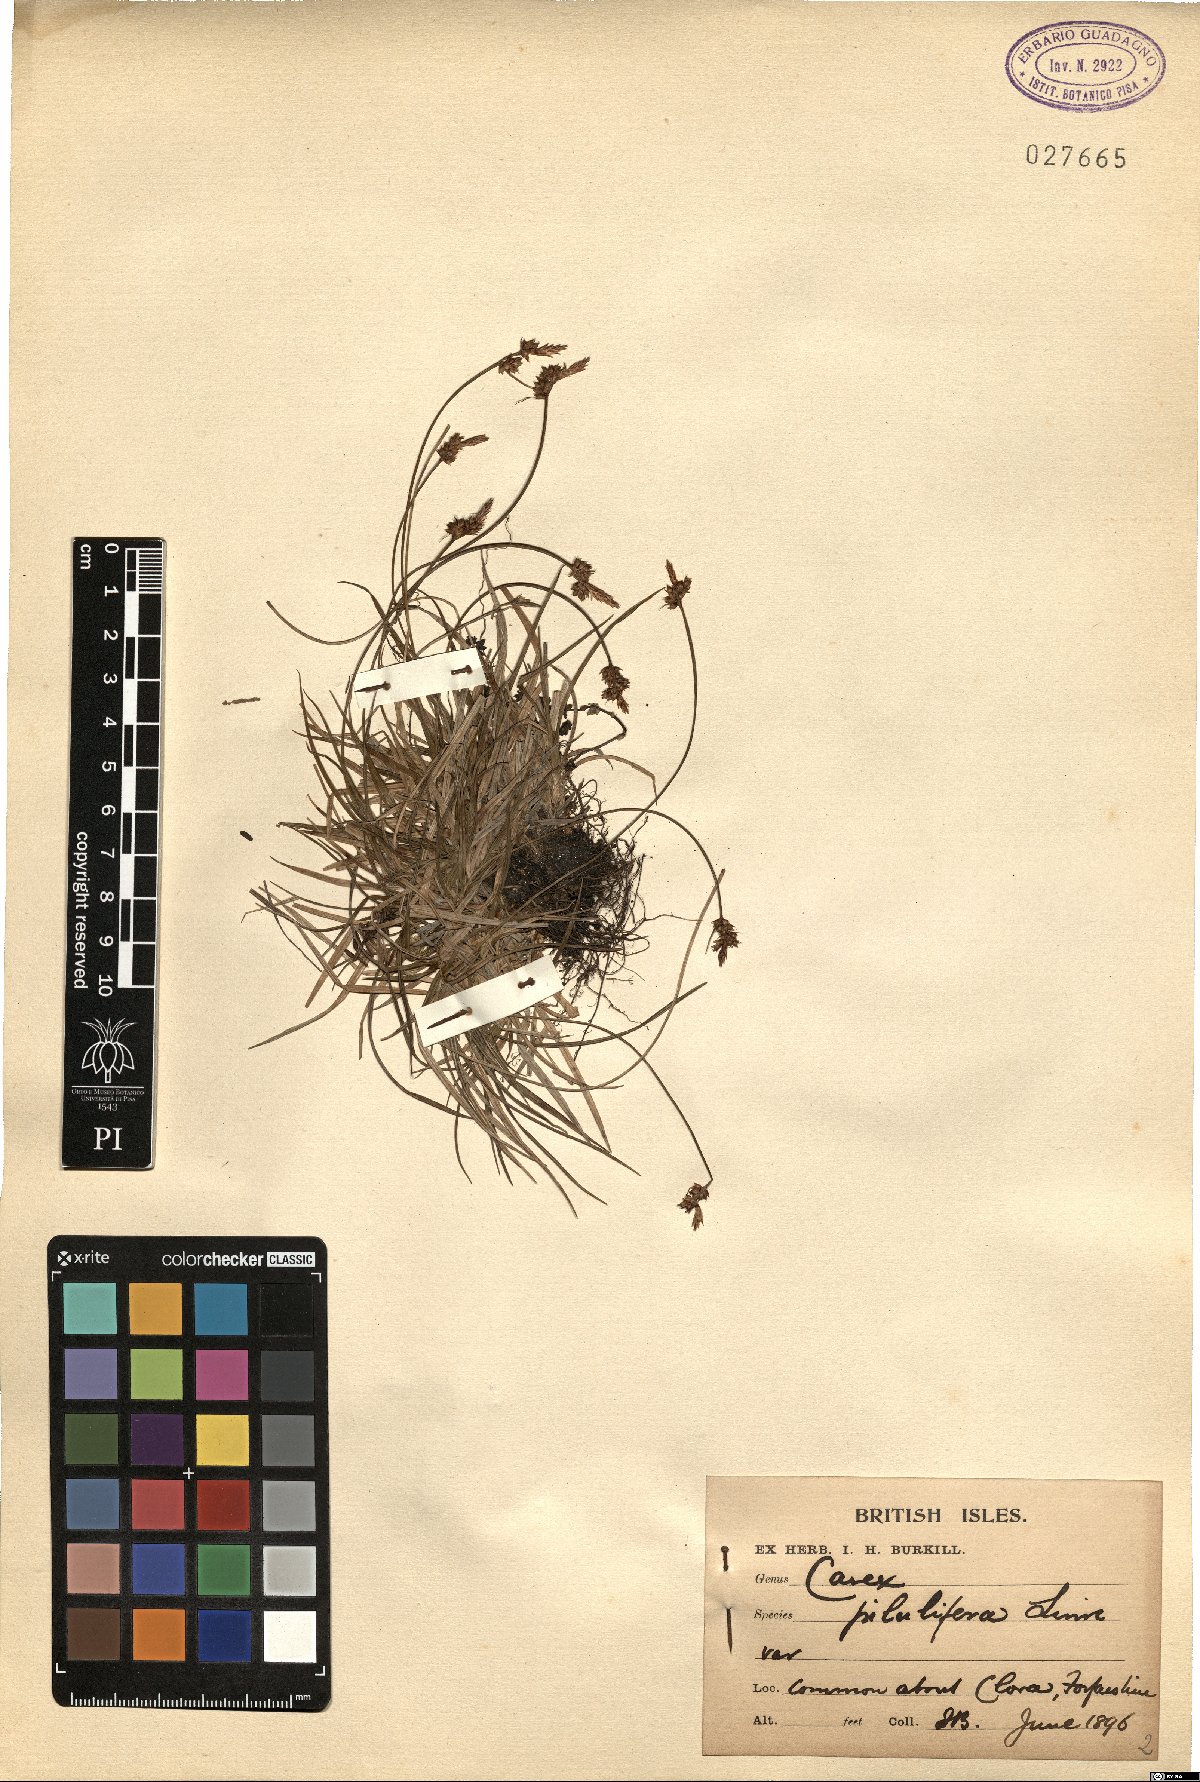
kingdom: Plantae
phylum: Tracheophyta
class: Liliopsida
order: Poales
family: Cyperaceae
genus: Carex
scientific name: Carex pilulifera
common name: Pill sedge
